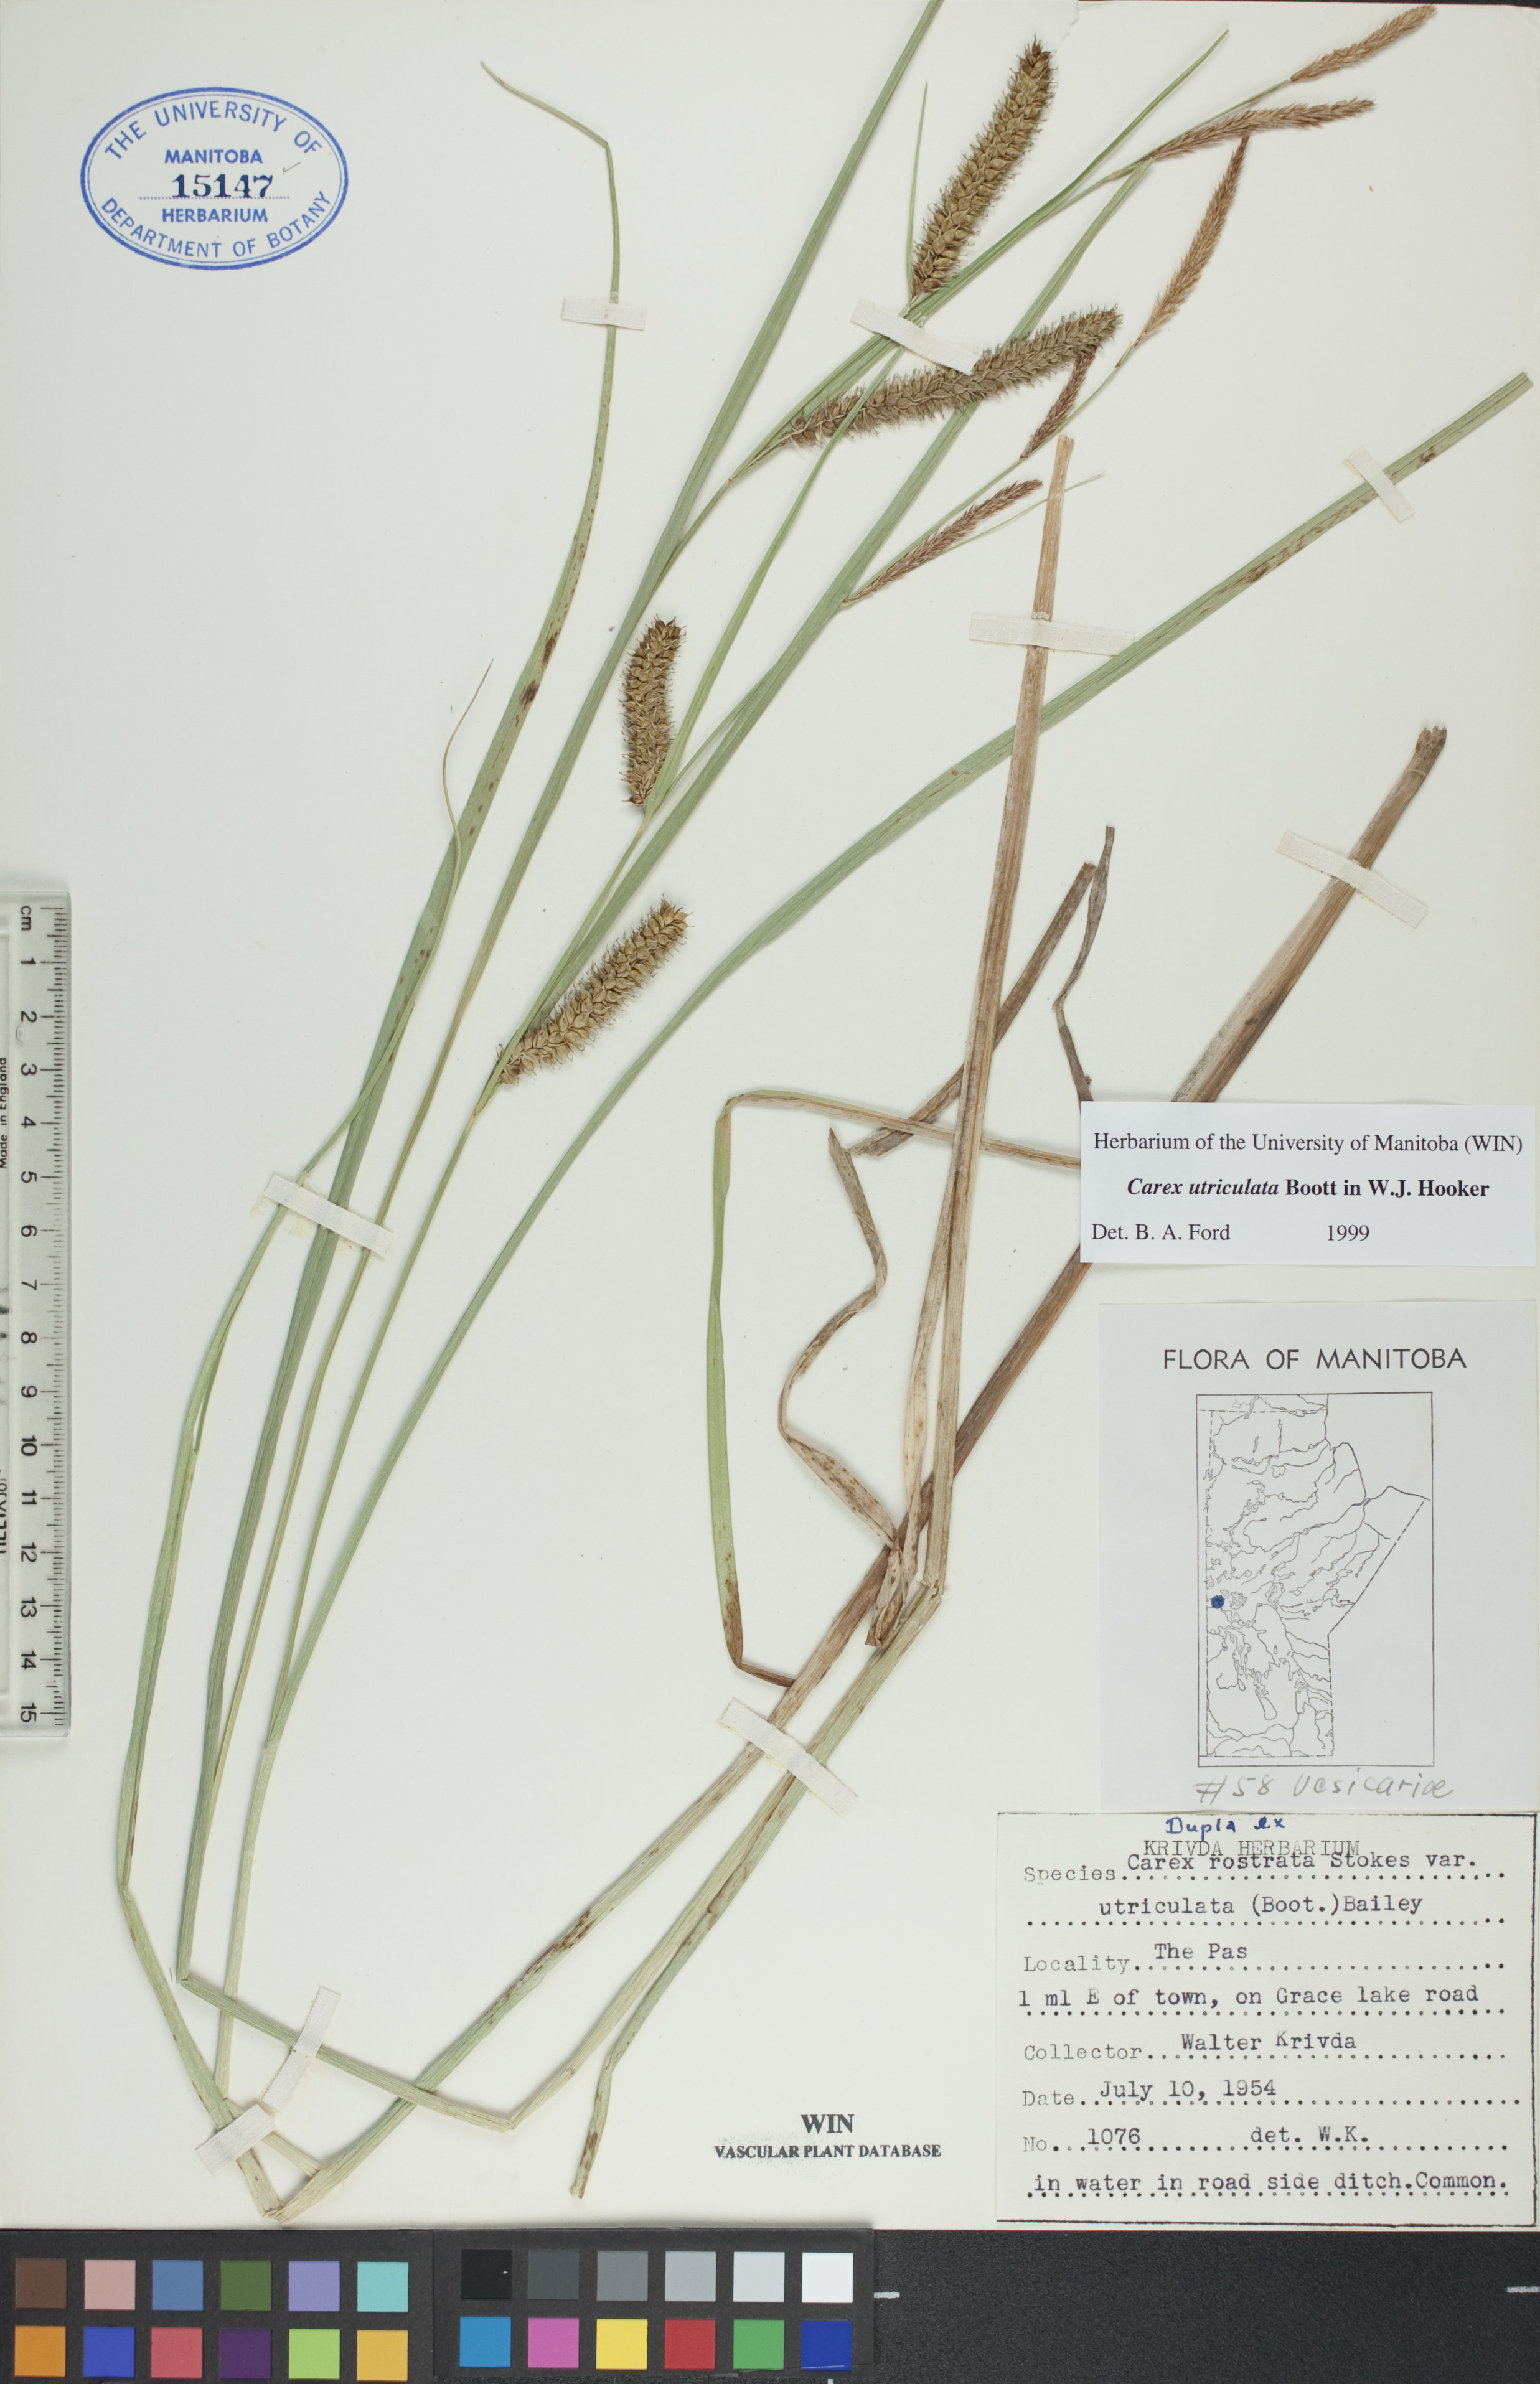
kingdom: Plantae
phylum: Tracheophyta
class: Liliopsida
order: Poales
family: Cyperaceae
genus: Carex
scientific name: Carex utriculata
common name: Beaked sedge
